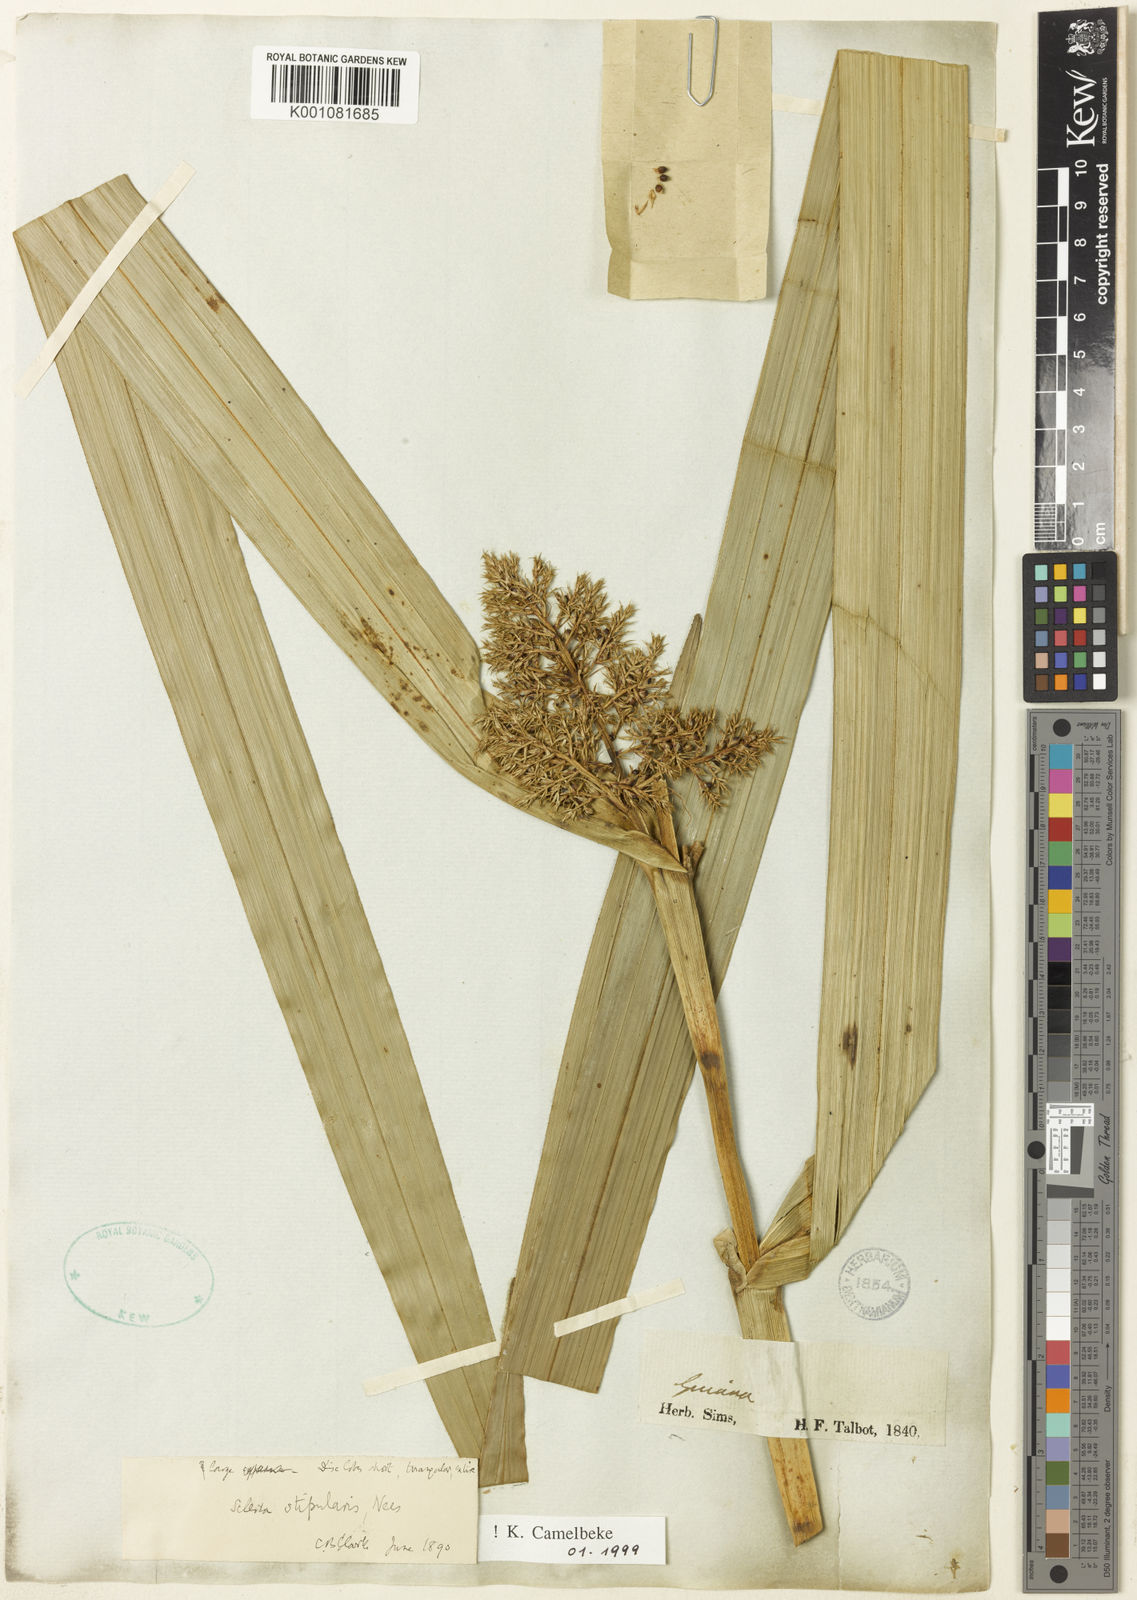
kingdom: Plantae
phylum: Tracheophyta
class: Liliopsida
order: Poales
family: Cyperaceae
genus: Scleria
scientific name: Scleria stipularis
